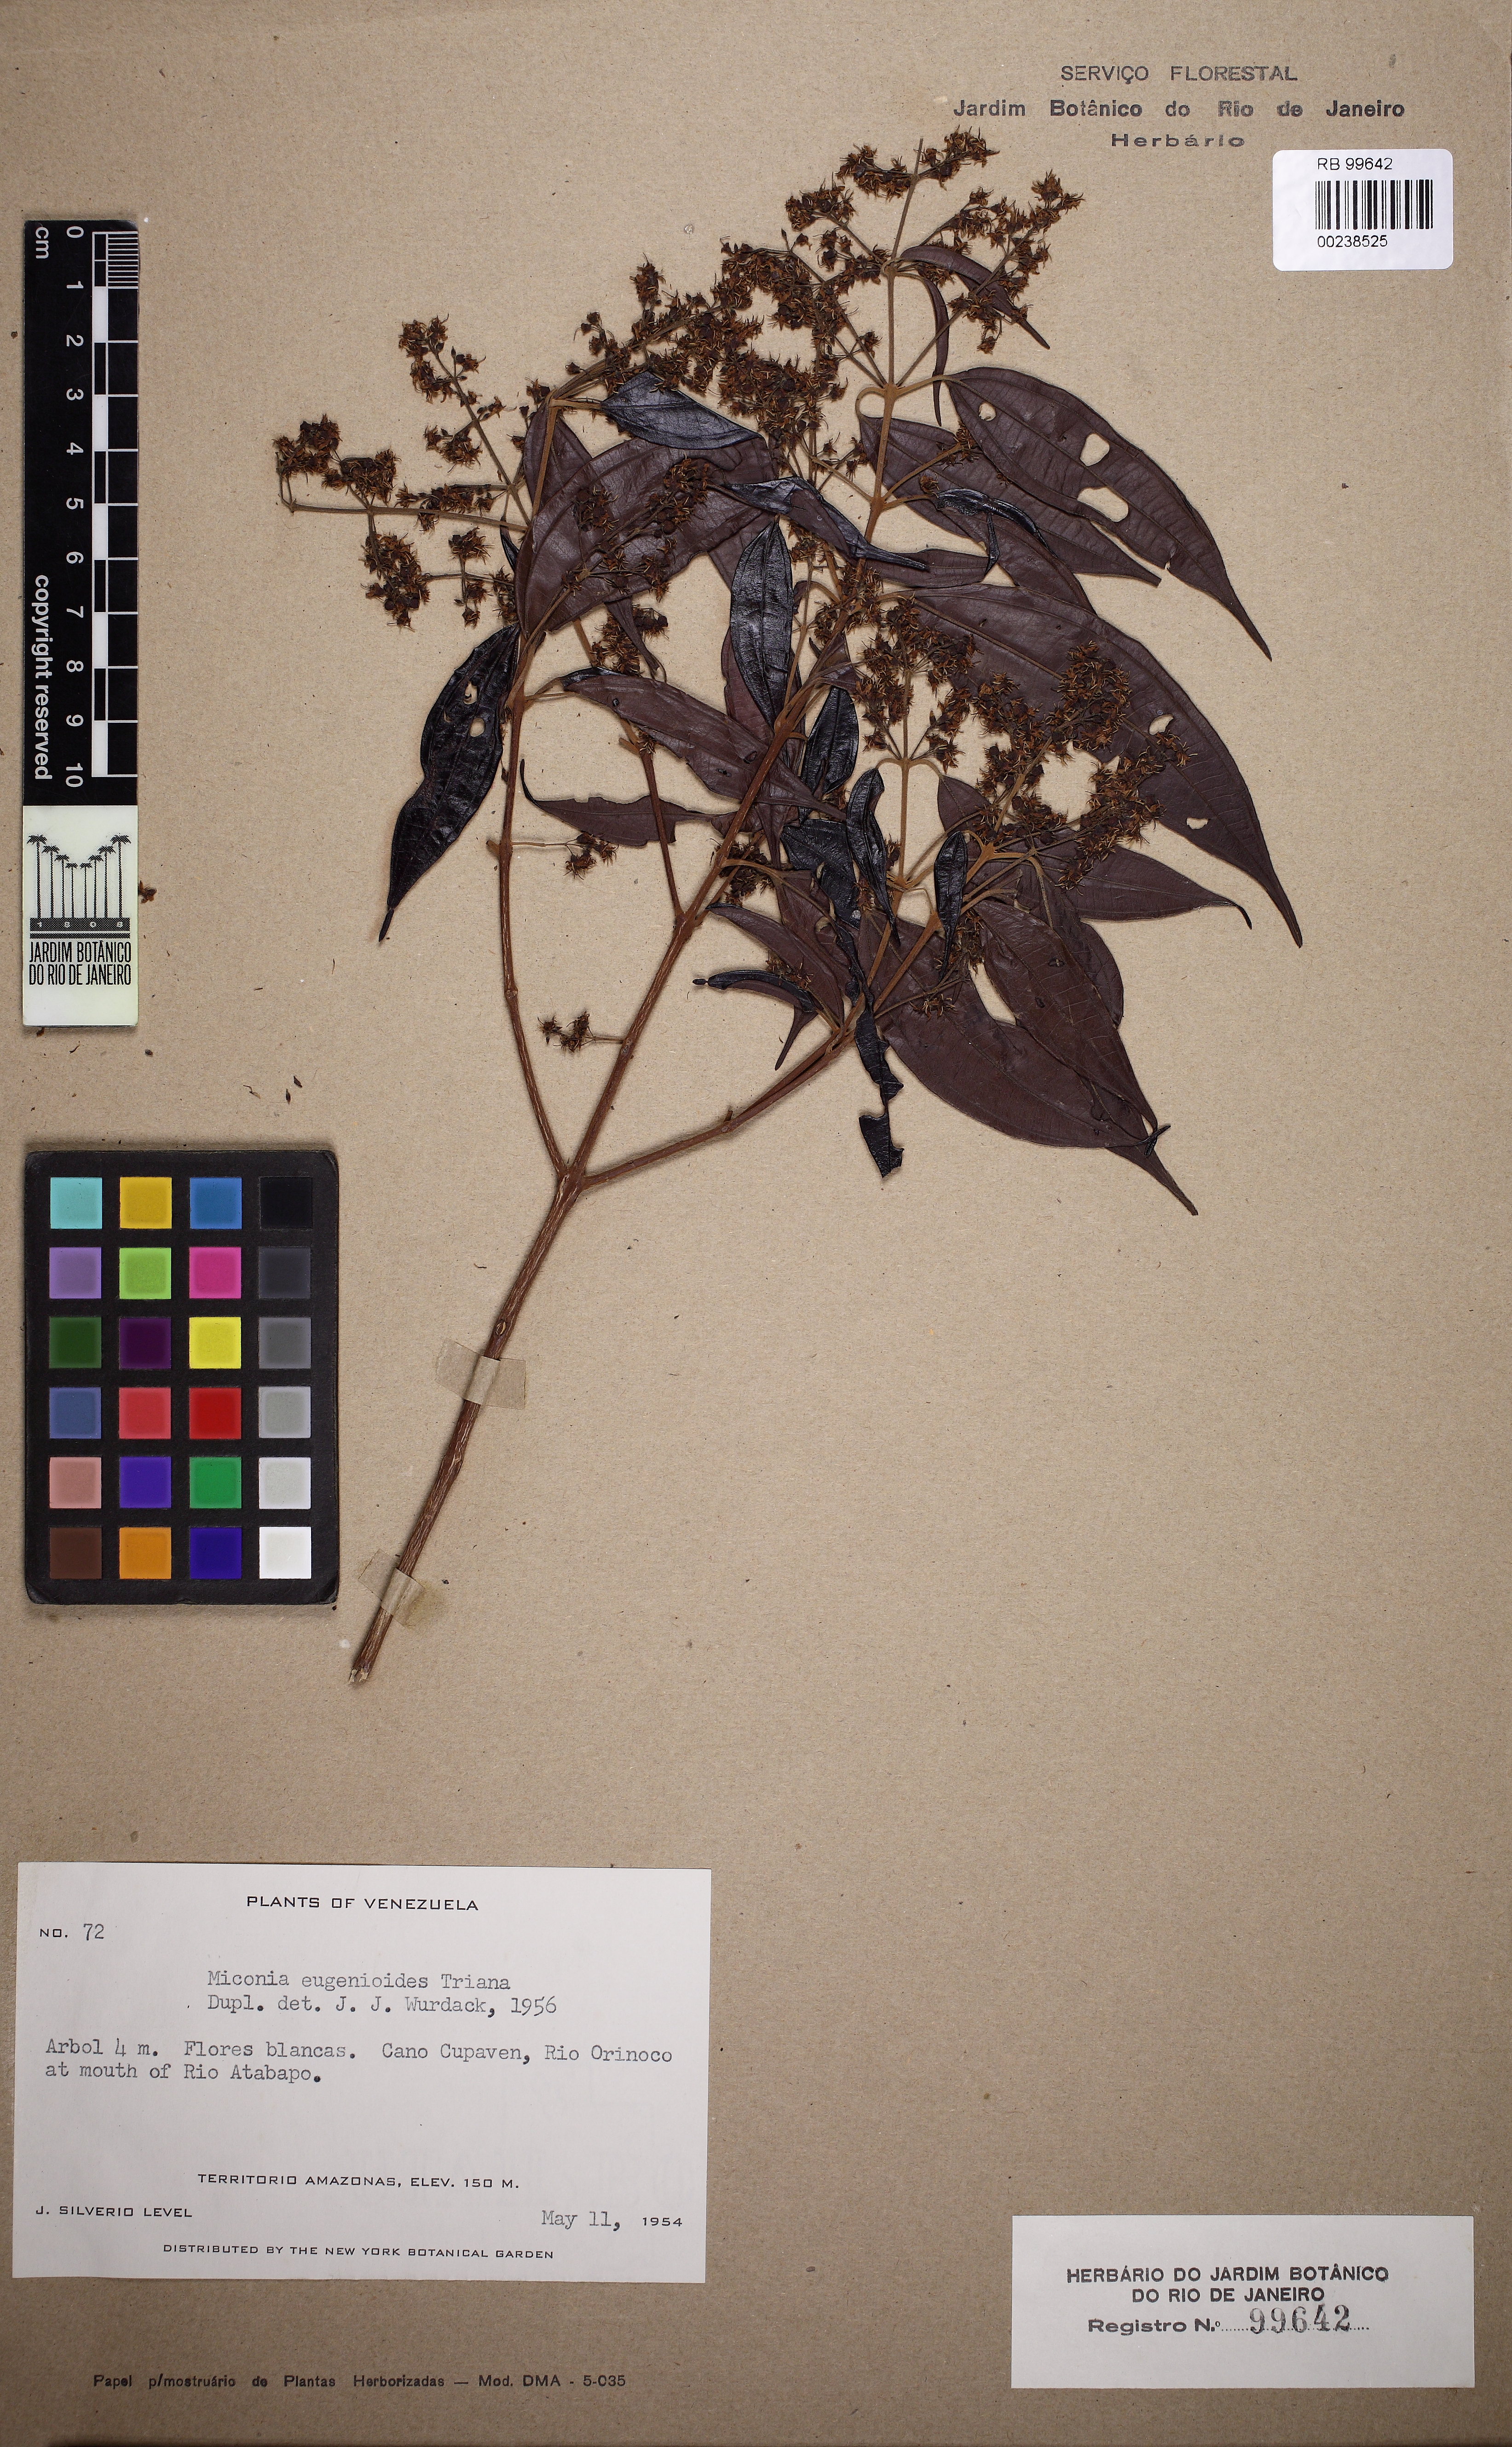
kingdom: Plantae
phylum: Tracheophyta
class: Magnoliopsida
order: Myrtales
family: Melastomataceae
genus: Miconia
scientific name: Miconia eugenioides
